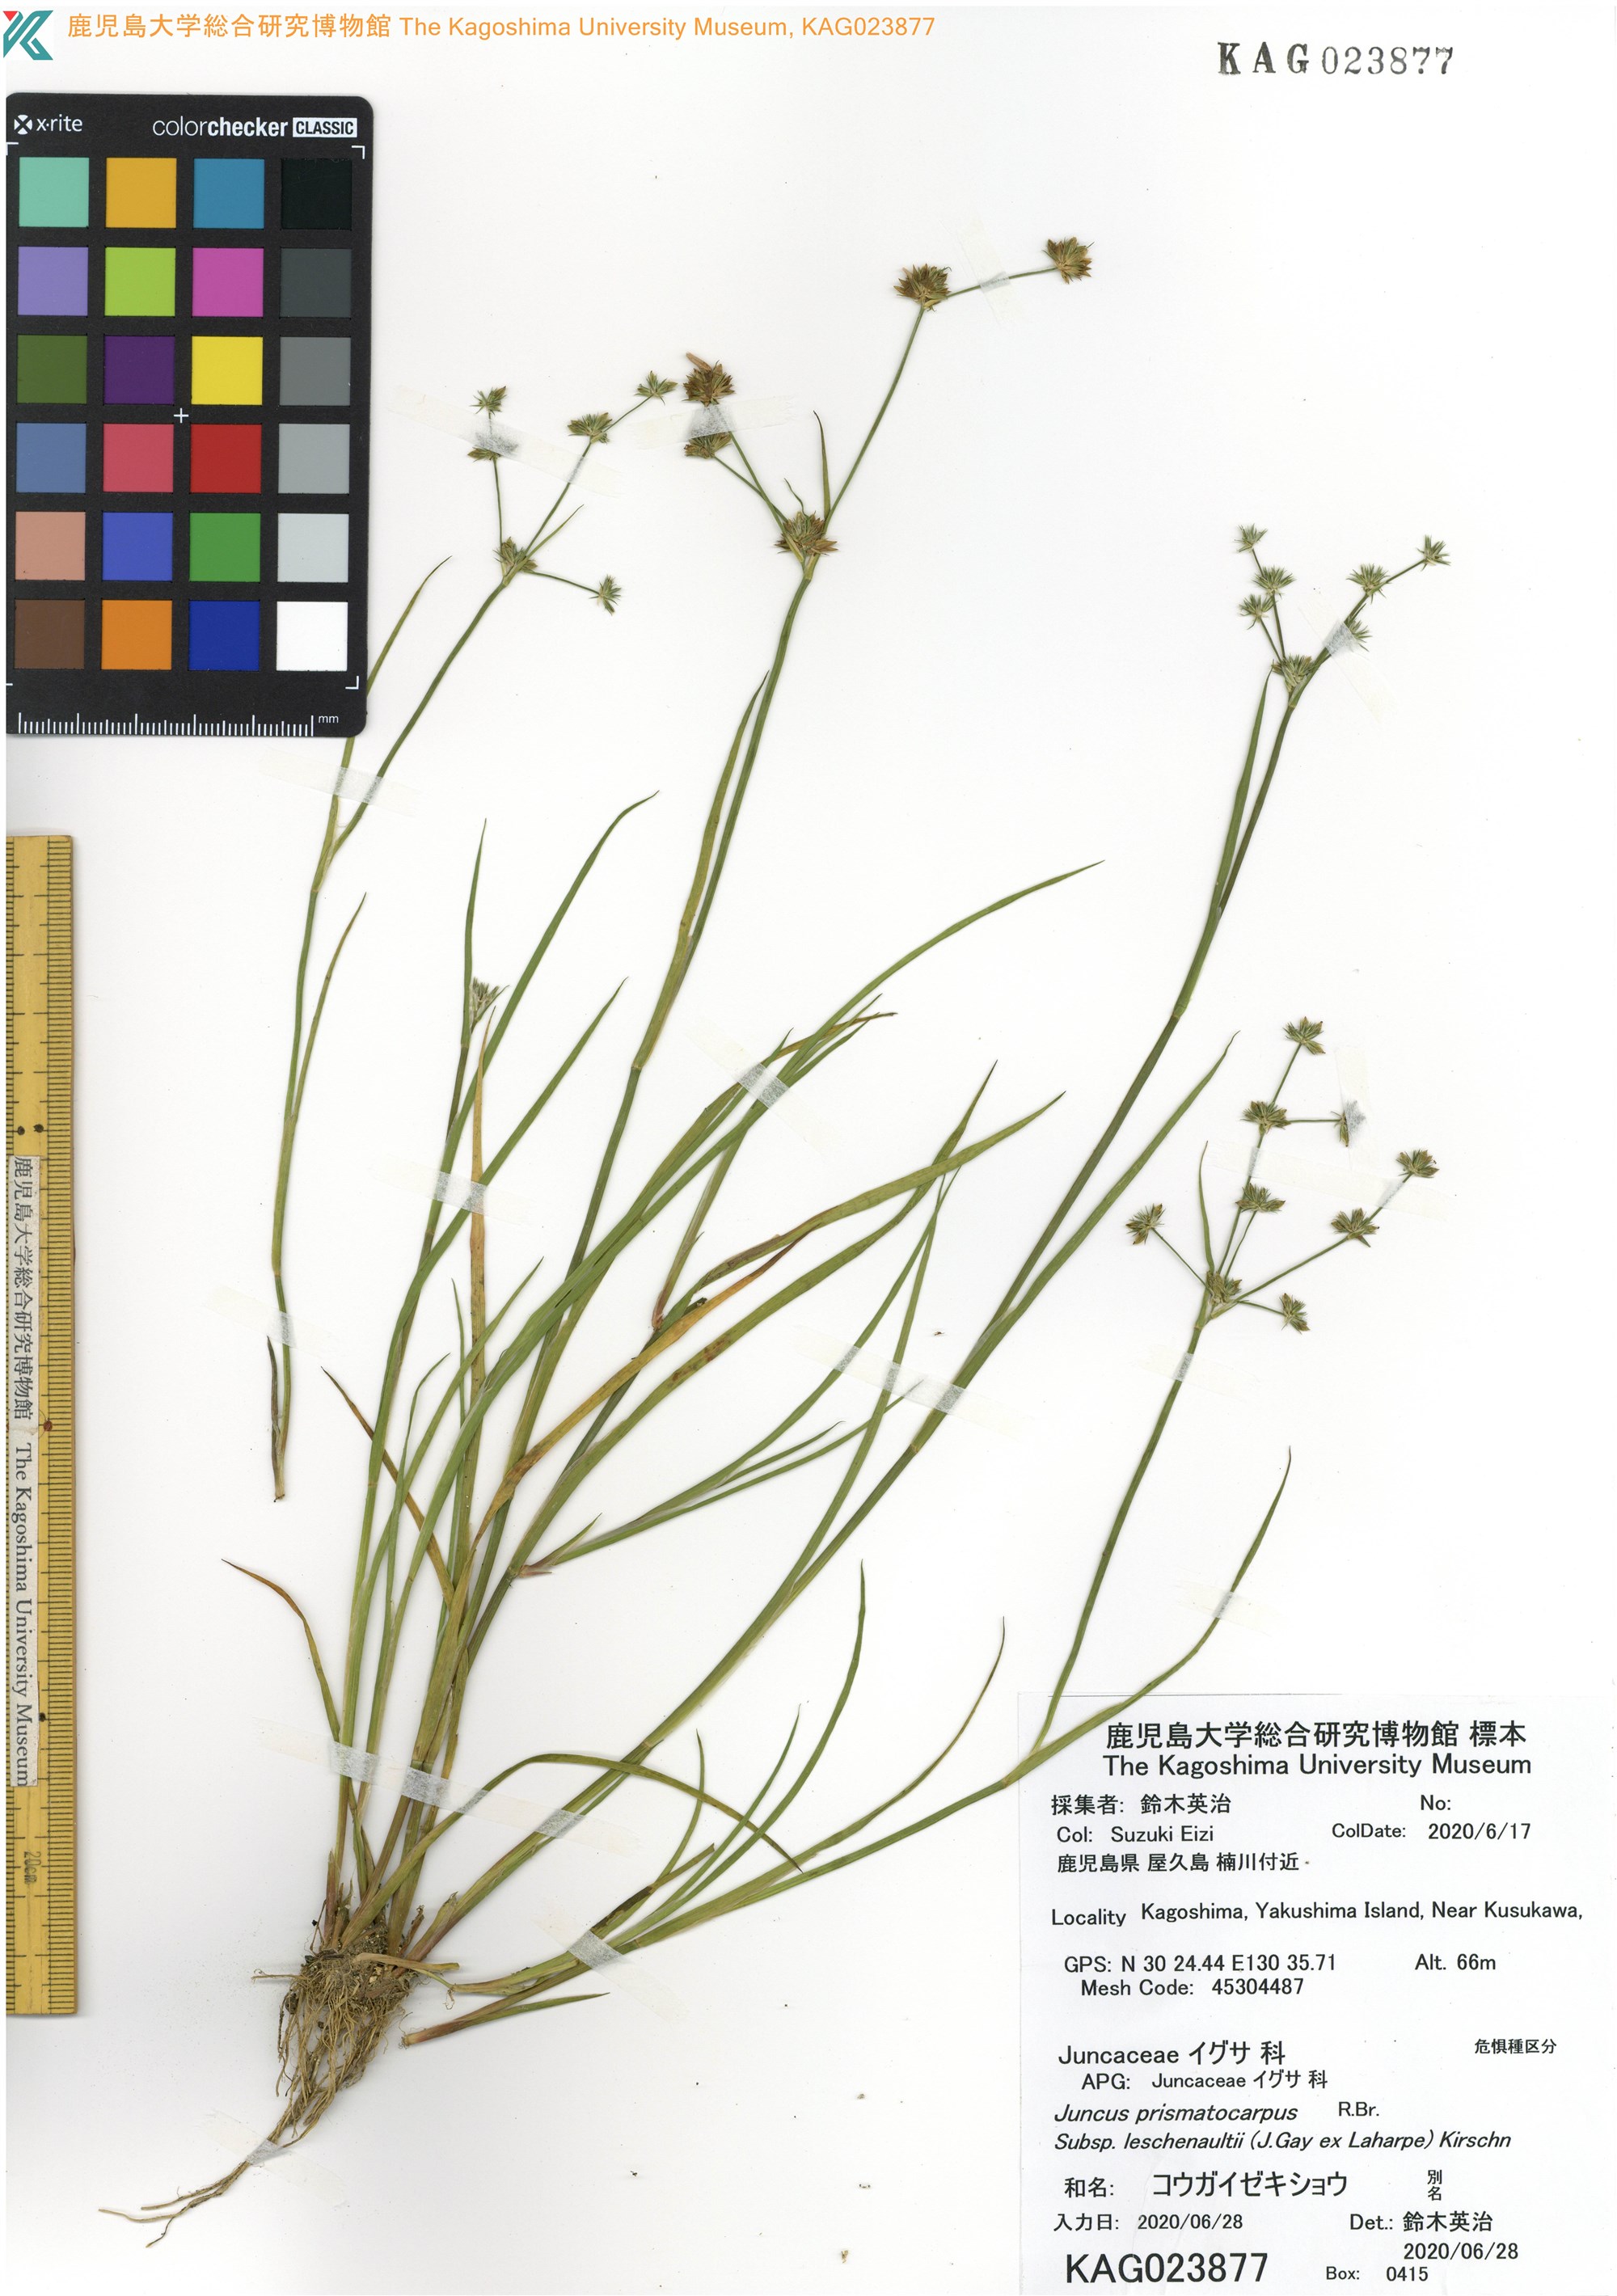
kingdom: Plantae
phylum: Tracheophyta
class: Liliopsida
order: Poales
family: Juncaceae
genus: Juncus
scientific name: Juncus prismatocarpus
